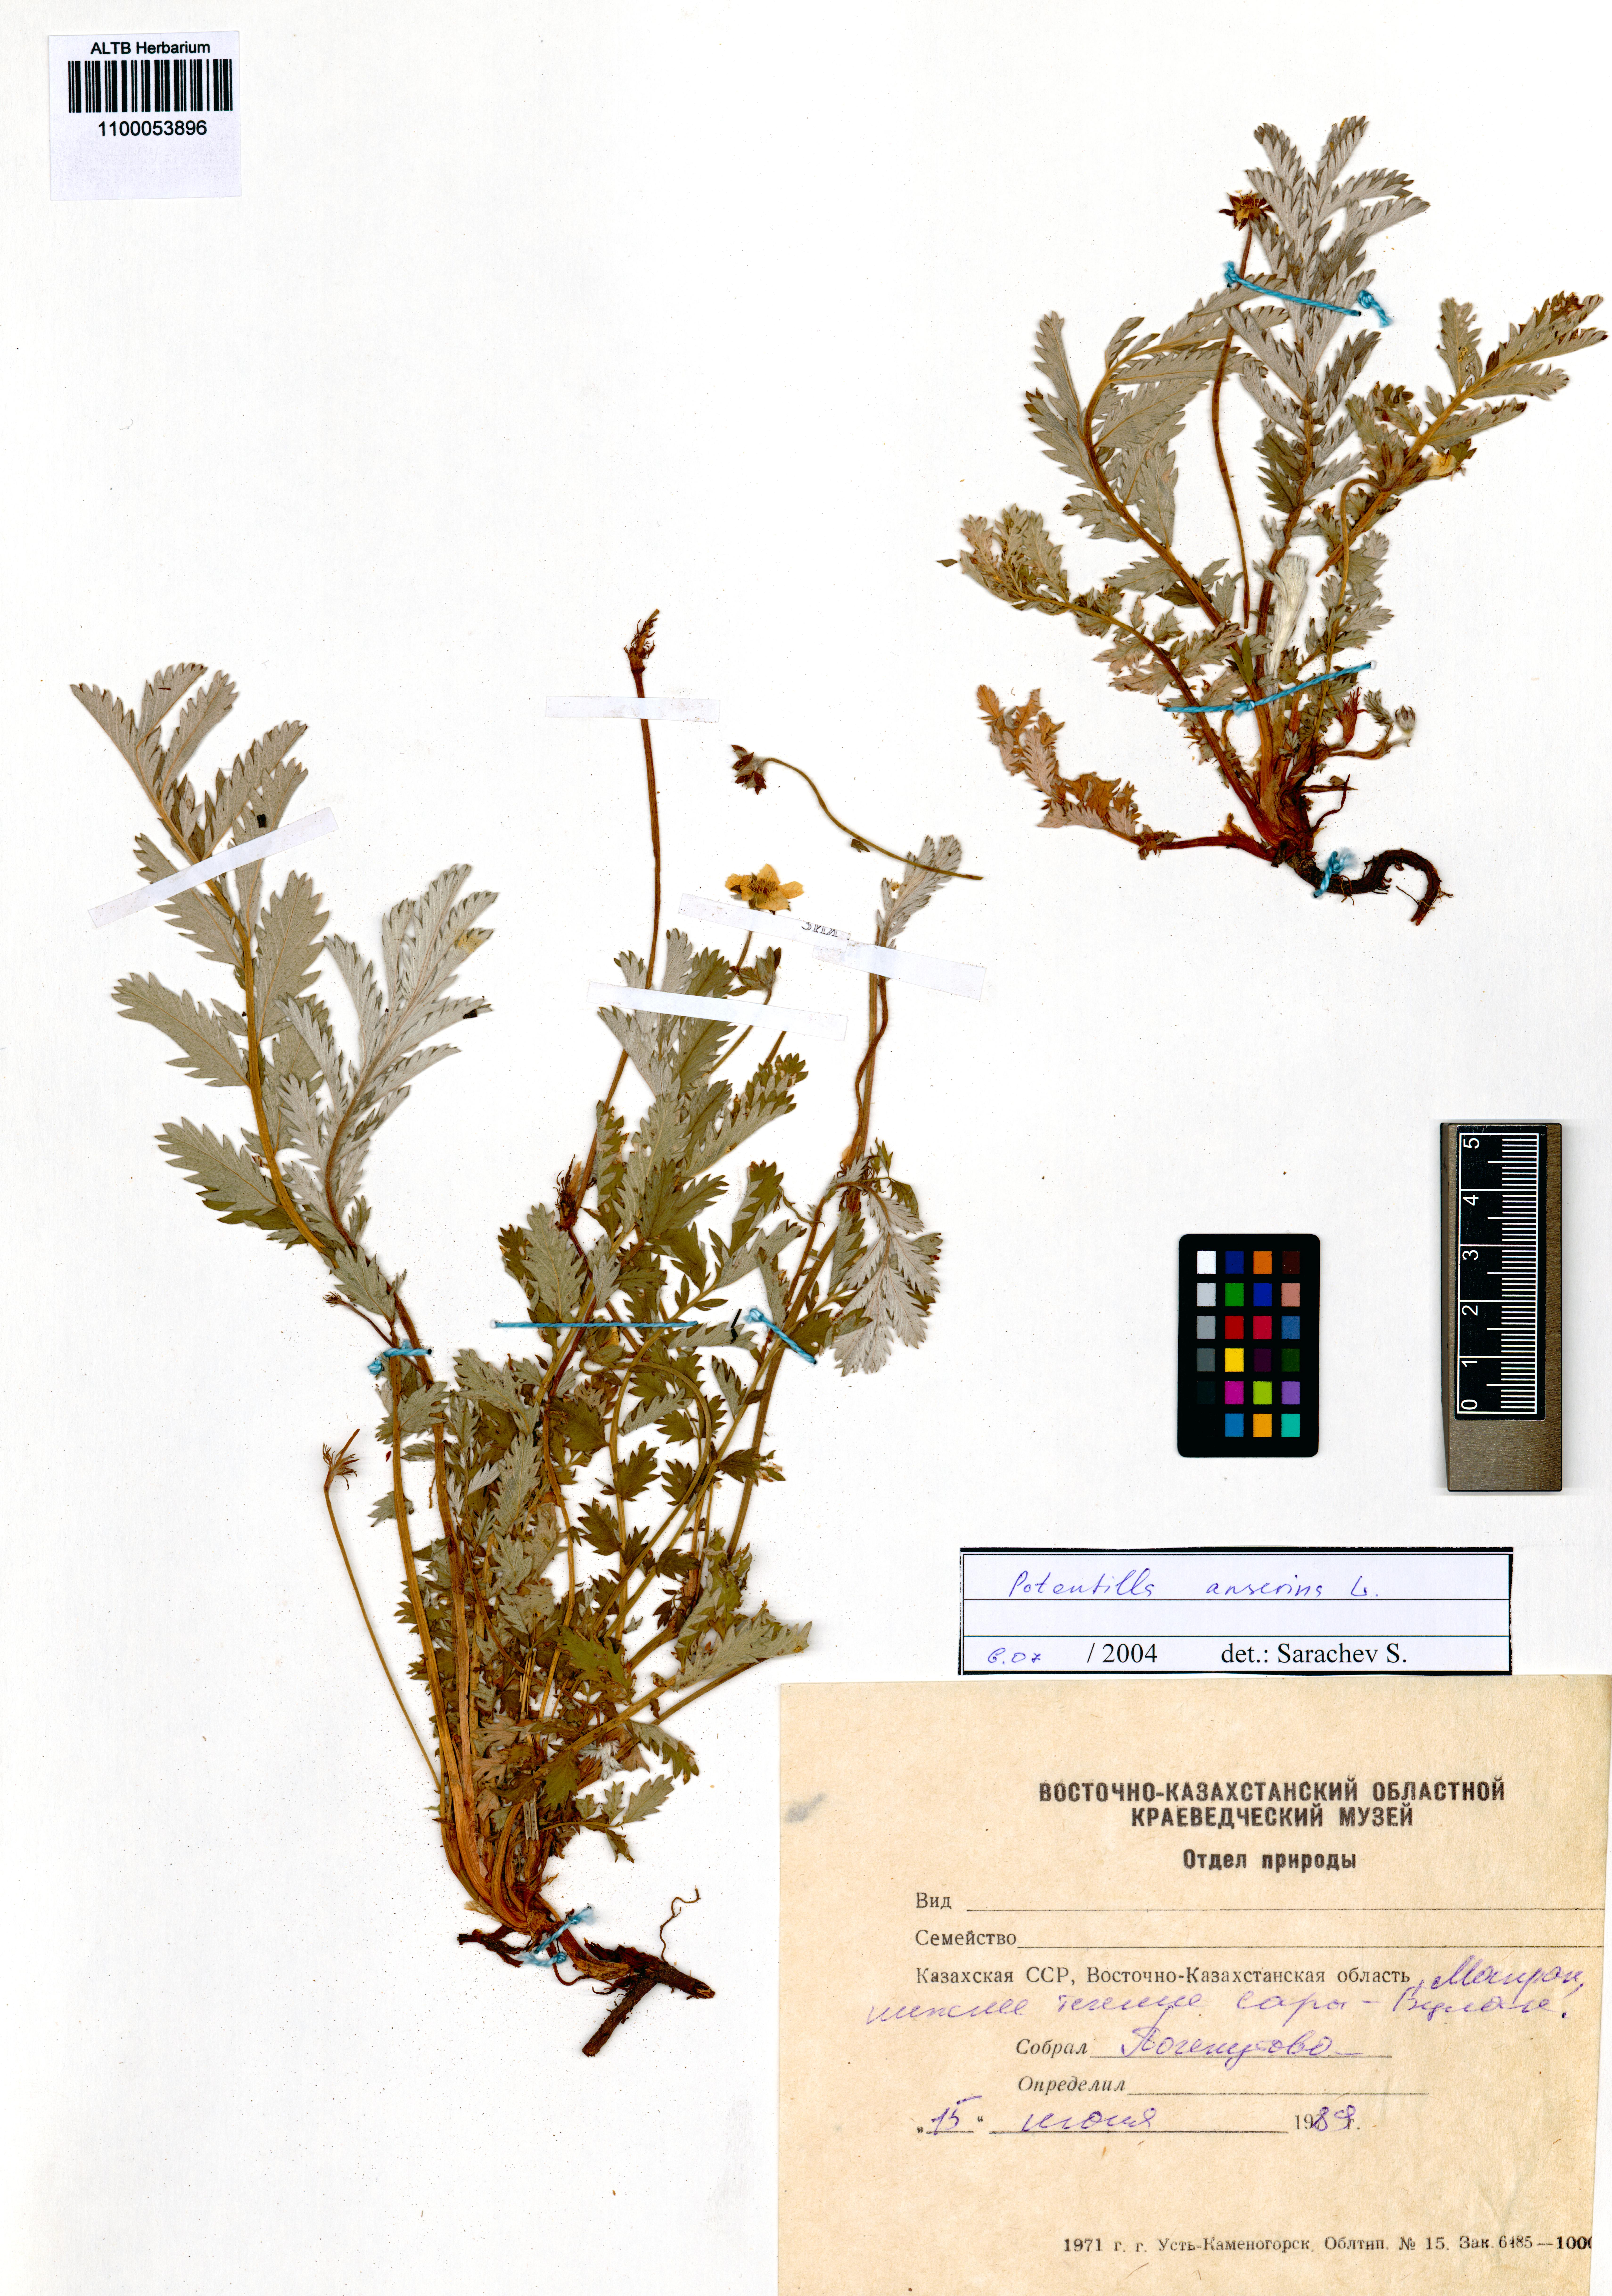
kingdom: Plantae
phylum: Tracheophyta
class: Magnoliopsida
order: Rosales
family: Rosaceae
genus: Argentina
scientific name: Argentina anserina
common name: Common silverweed
